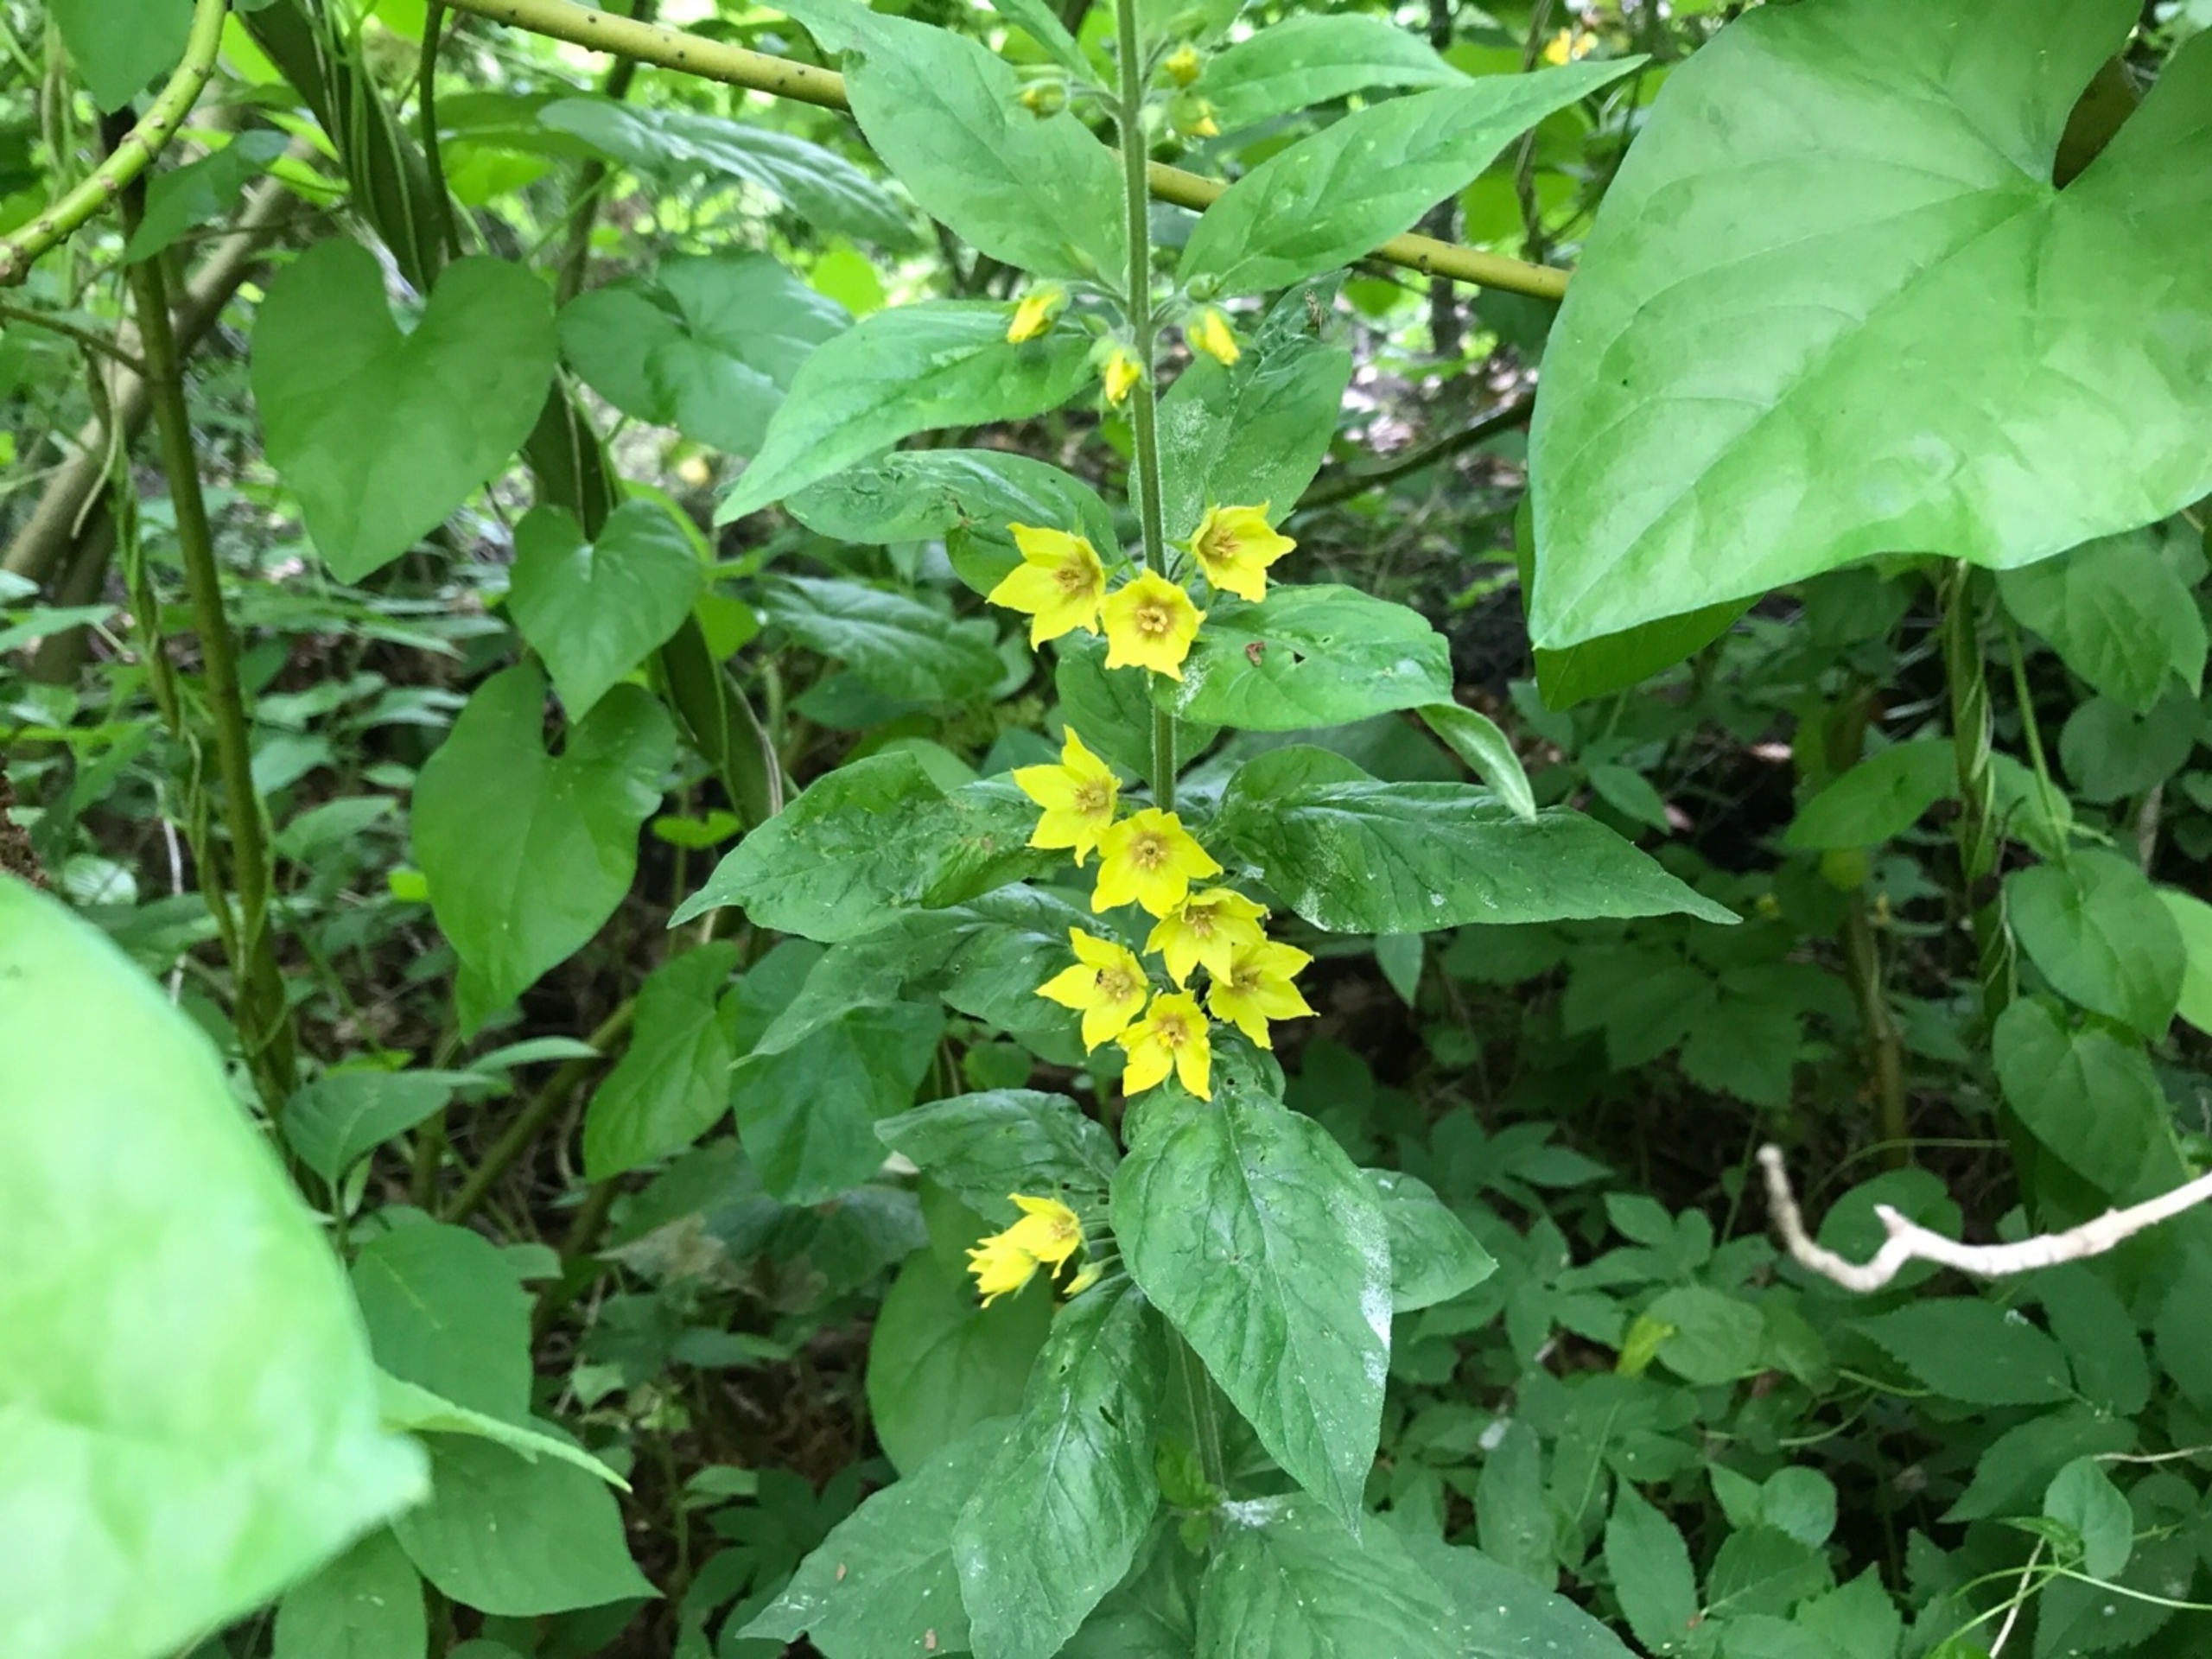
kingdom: Plantae
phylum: Tracheophyta
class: Magnoliopsida
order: Ericales
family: Primulaceae
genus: Lysimachia
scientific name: Lysimachia punctata
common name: Prikbladet fredløs
